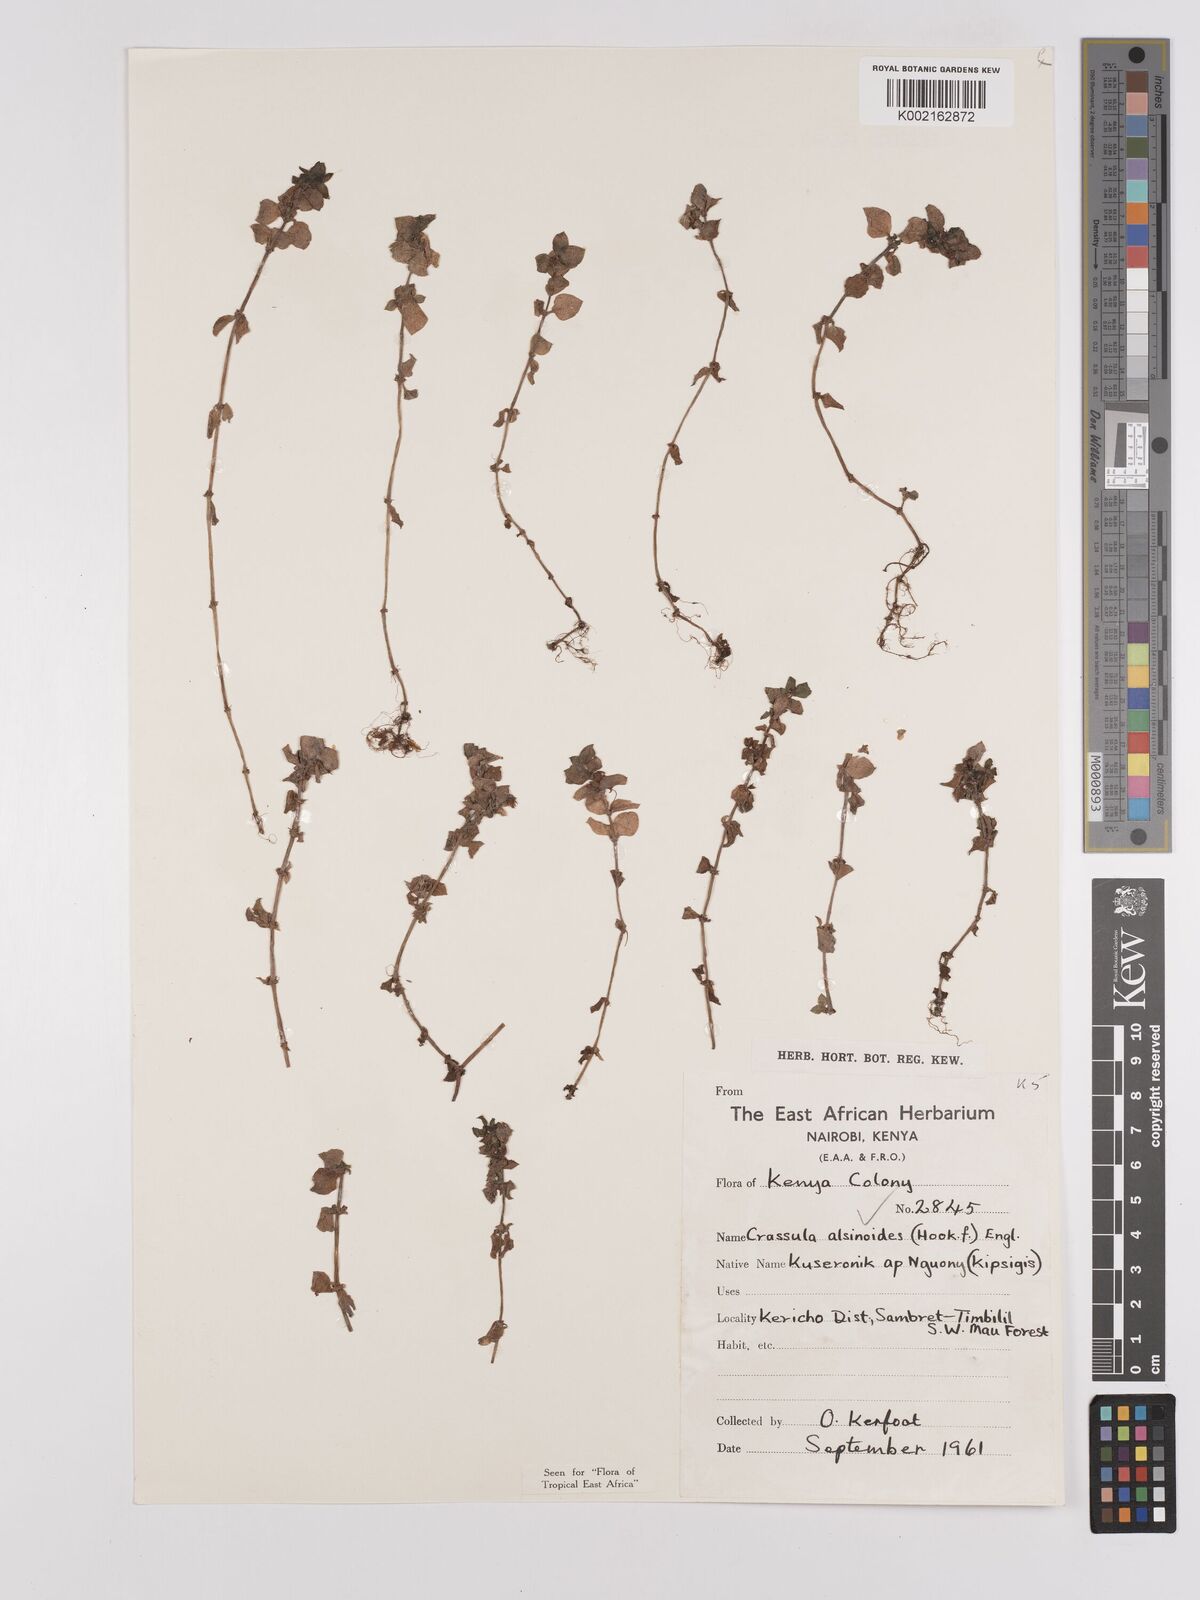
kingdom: Plantae
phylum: Tracheophyta
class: Magnoliopsida
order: Saxifragales
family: Crassulaceae
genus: Crassula
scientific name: Crassula alsinoides
